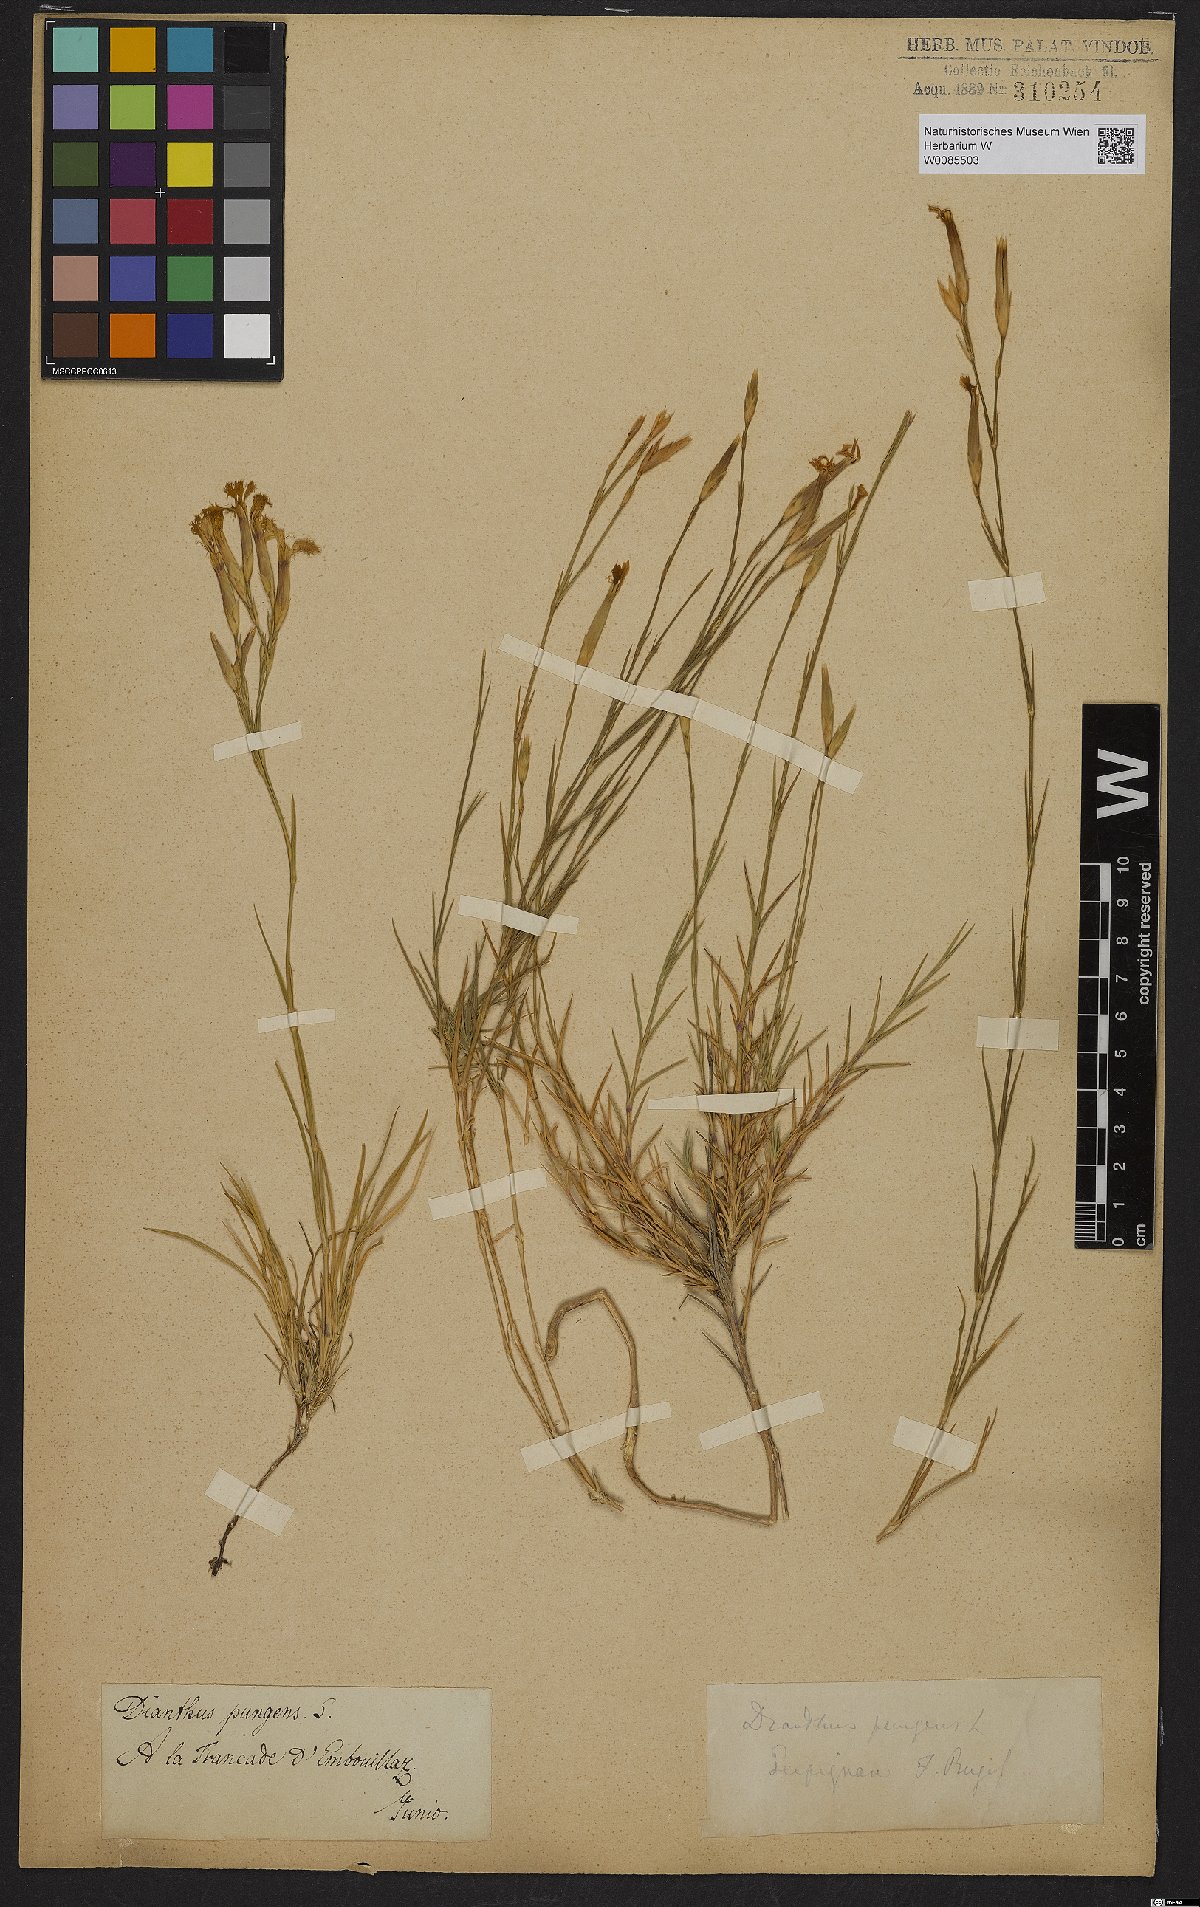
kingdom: Plantae
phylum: Tracheophyta
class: Magnoliopsida
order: Caryophyllales
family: Caryophyllaceae
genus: Dianthus
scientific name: Dianthus pungens
